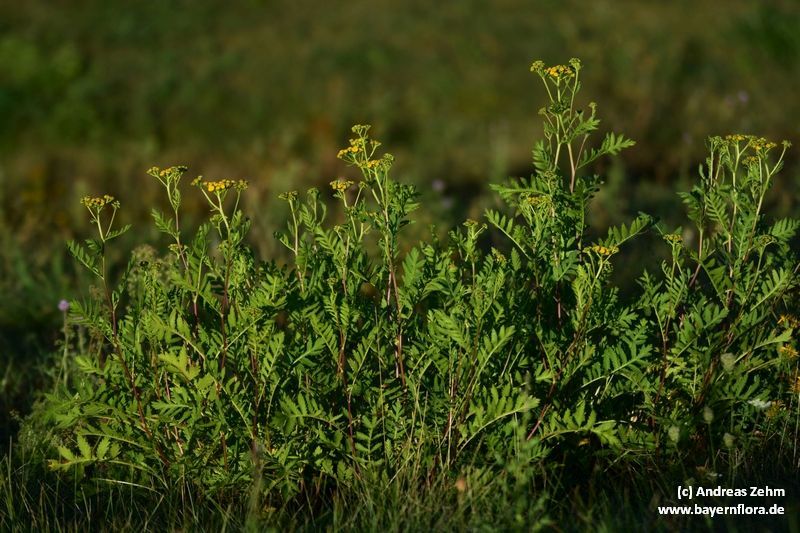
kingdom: Plantae
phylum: Tracheophyta
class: Magnoliopsida
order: Asterales
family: Asteraceae
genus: Tanacetum
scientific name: Tanacetum vulgare
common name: Common tansy
